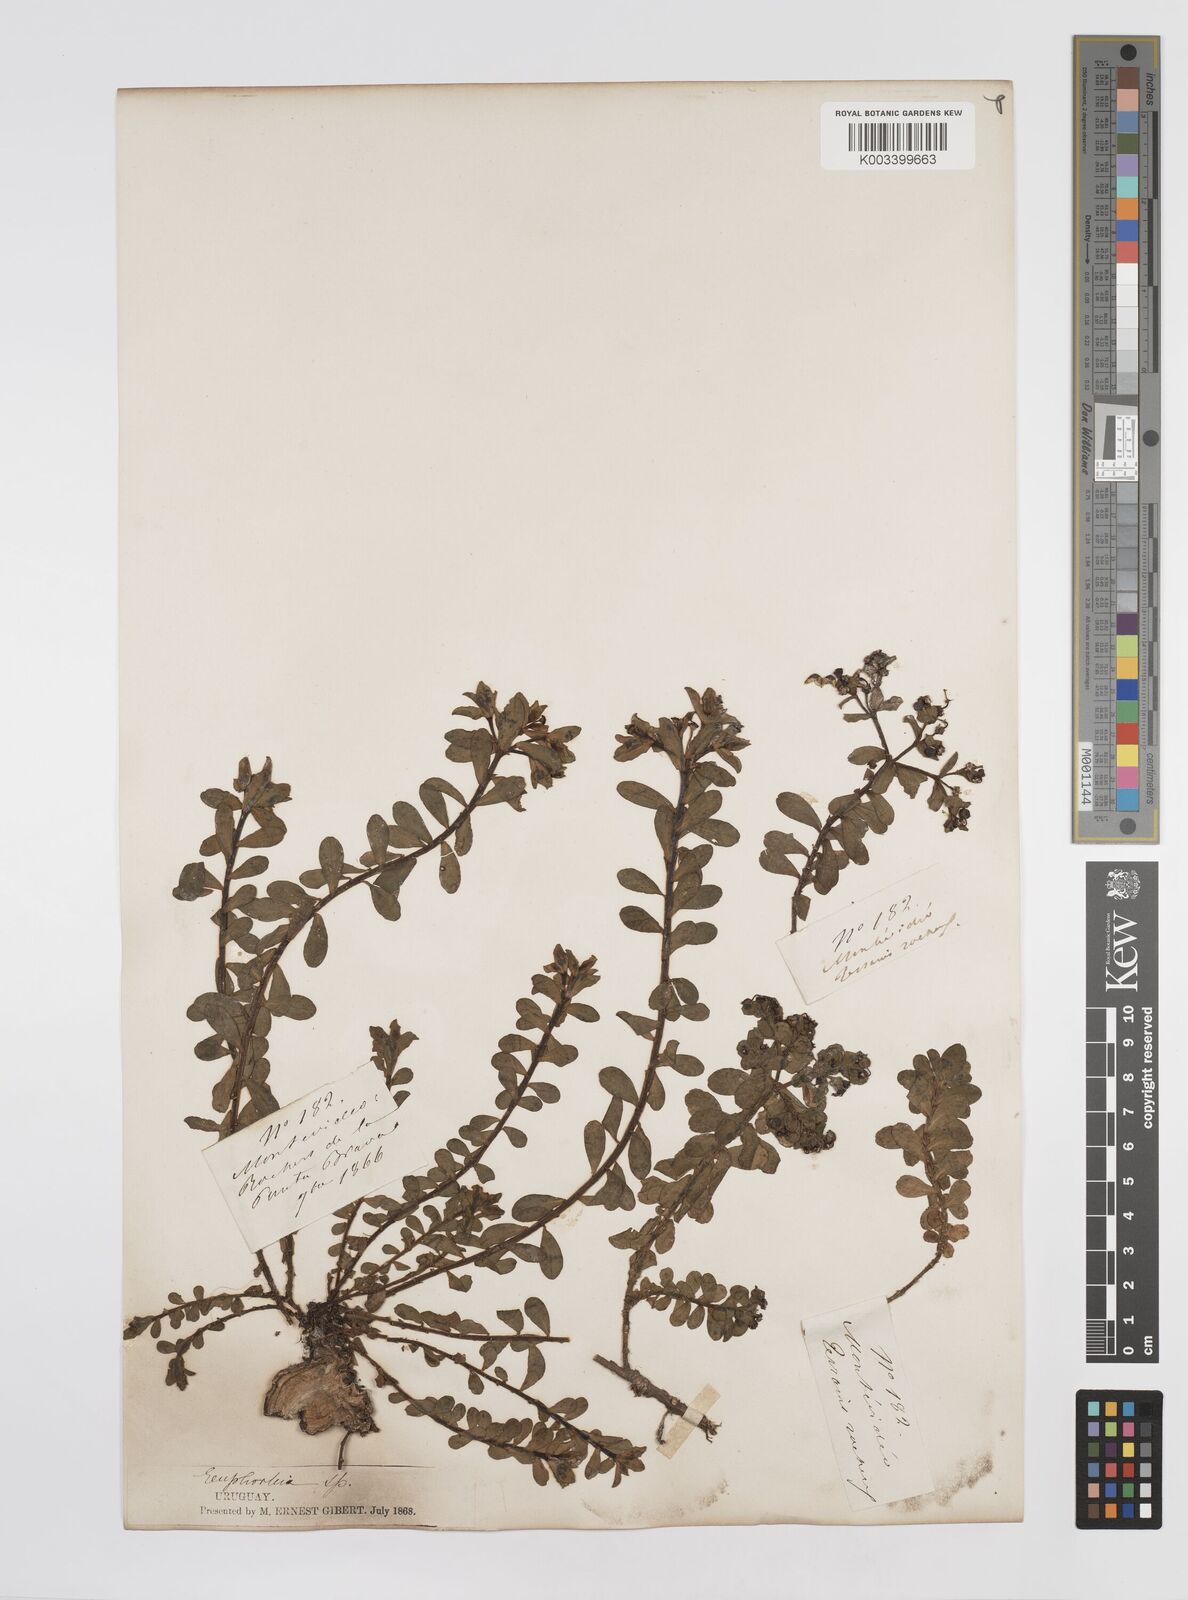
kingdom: Plantae
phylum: Tracheophyta
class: Magnoliopsida
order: Malpighiales
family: Euphorbiaceae
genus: Euphorbia
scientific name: Euphorbia segetalis
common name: Corn spurge
